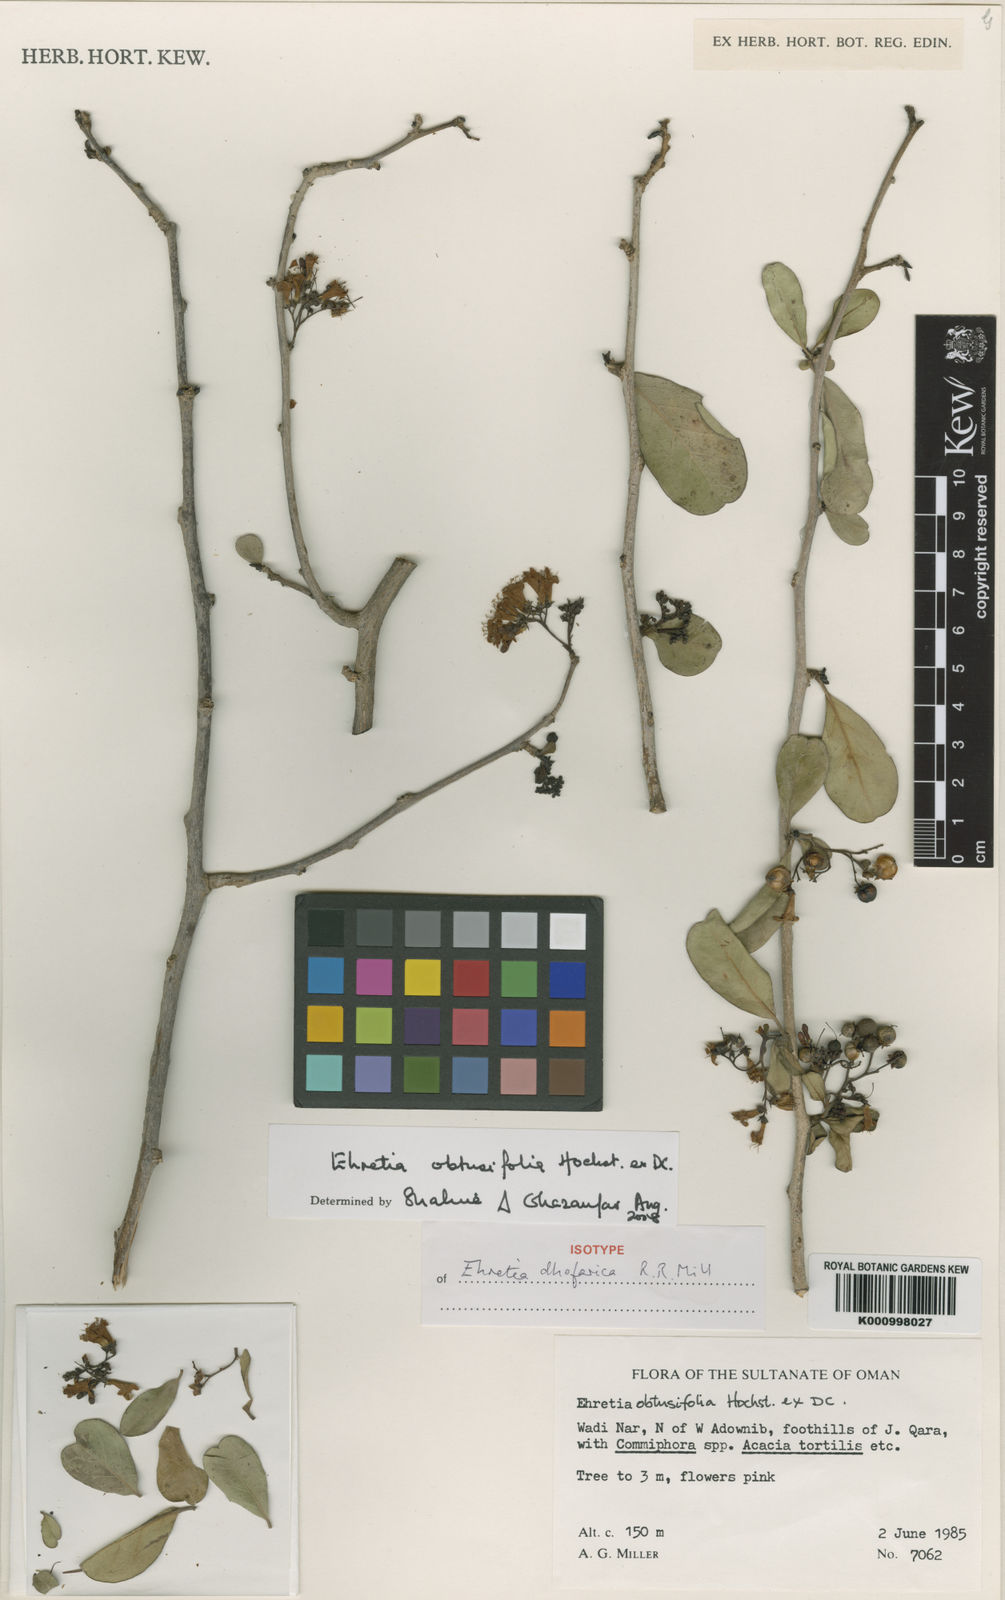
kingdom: Plantae
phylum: Tracheophyta
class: Magnoliopsida
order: Boraginales
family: Ehretiaceae
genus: Ehretia
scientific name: Ehretia
